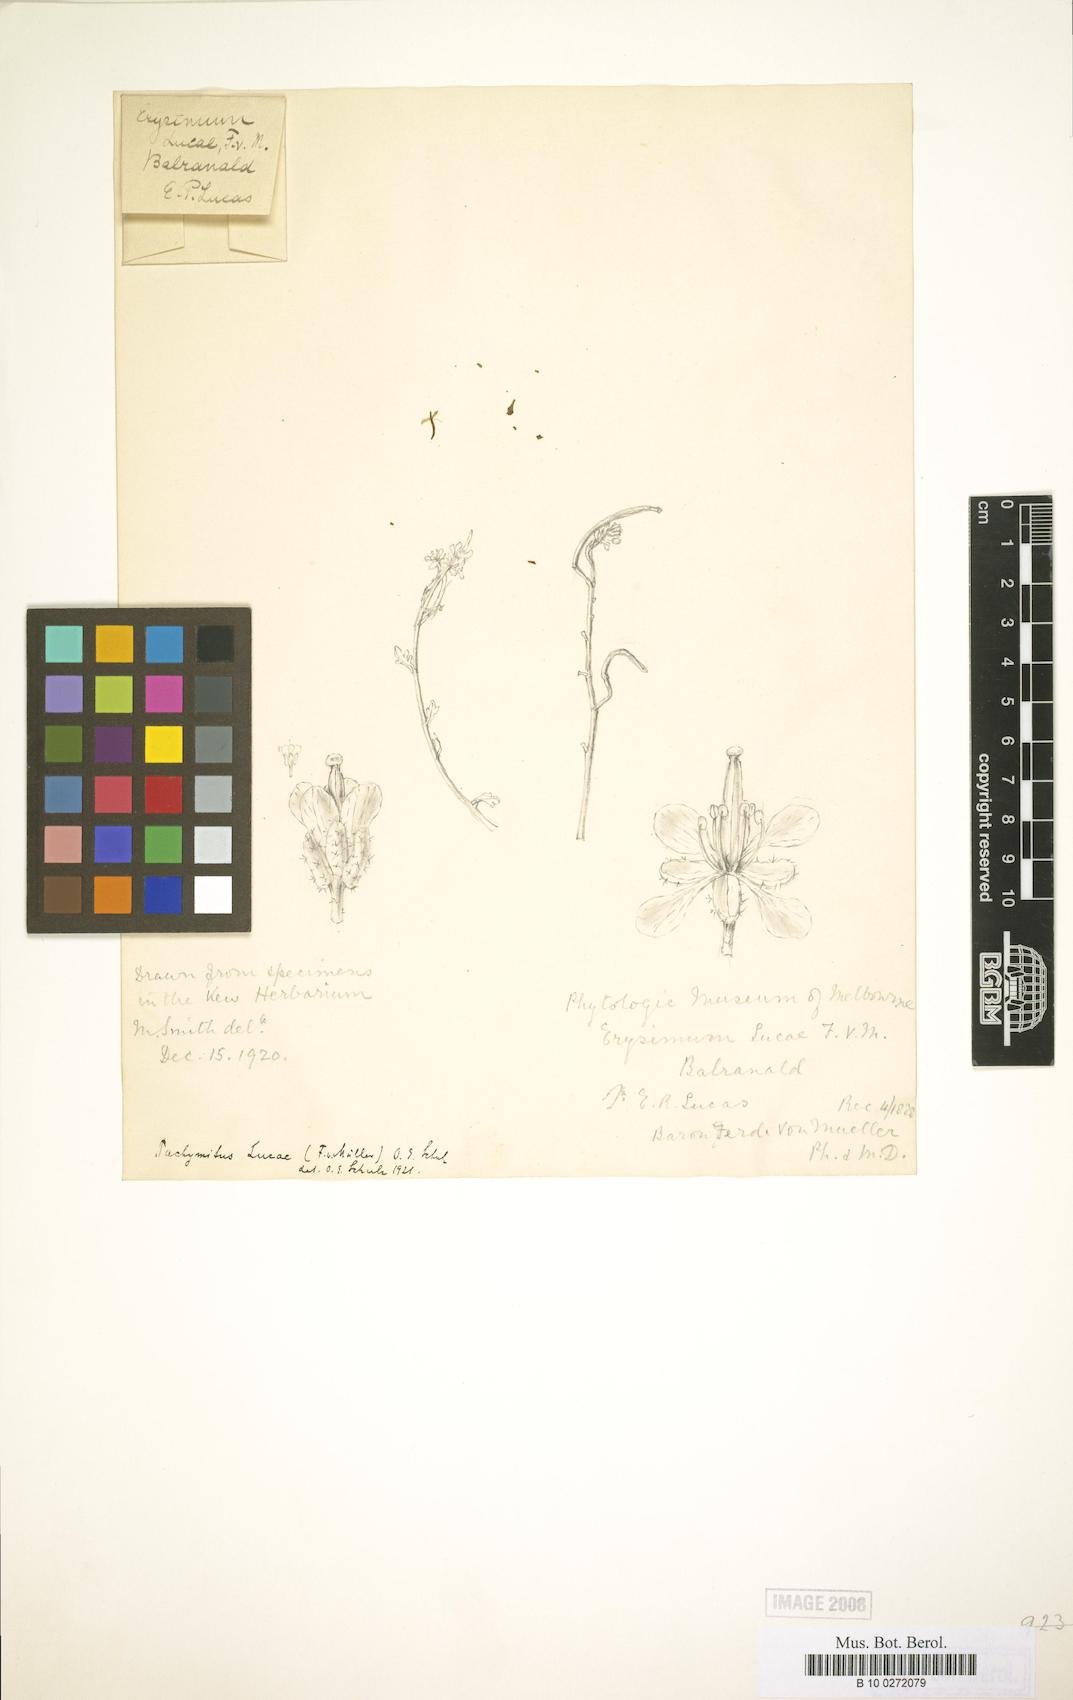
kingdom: Plantae
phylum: Tracheophyta
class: Magnoliopsida
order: Brassicales
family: Brassicaceae
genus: Pachymitus
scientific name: Pachymitus cardaminoides
